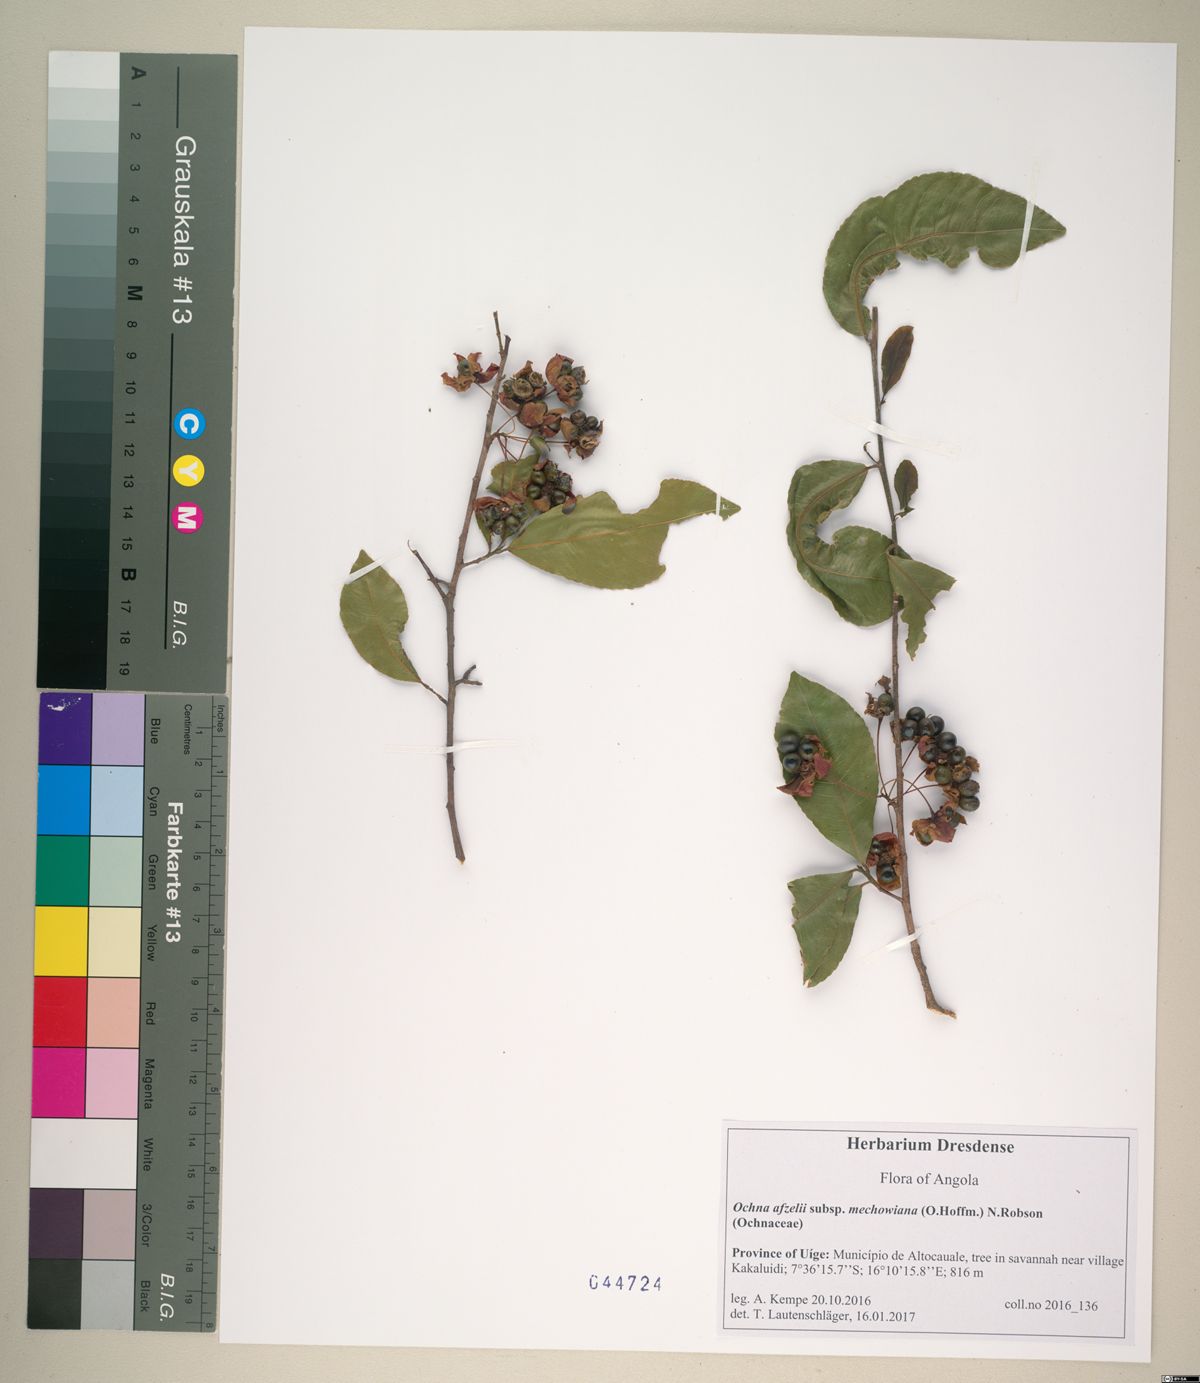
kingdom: Plantae
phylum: Tracheophyta
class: Magnoliopsida
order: Malpighiales
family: Ochnaceae
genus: Ochna
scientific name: Ochna afzelii
